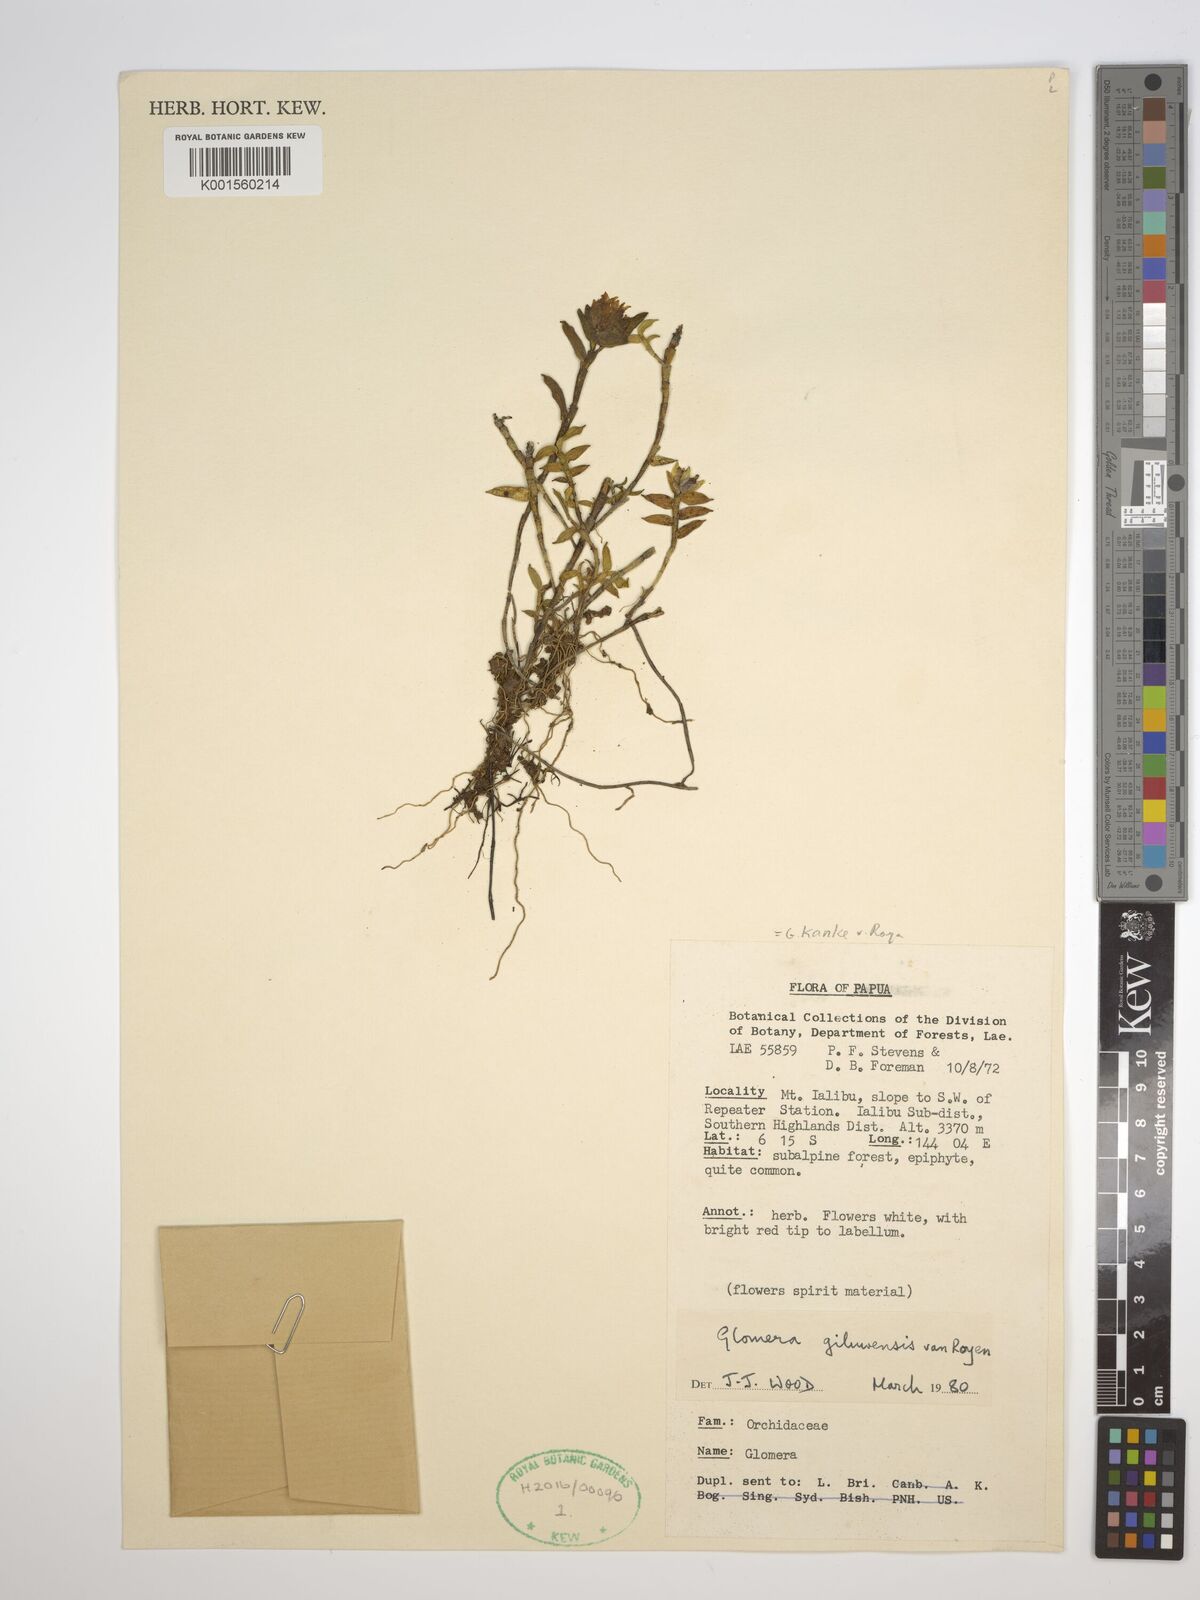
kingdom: Plantae
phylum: Tracheophyta
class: Liliopsida
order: Asparagales
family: Orchidaceae
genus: Glomera
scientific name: Glomera kanke
